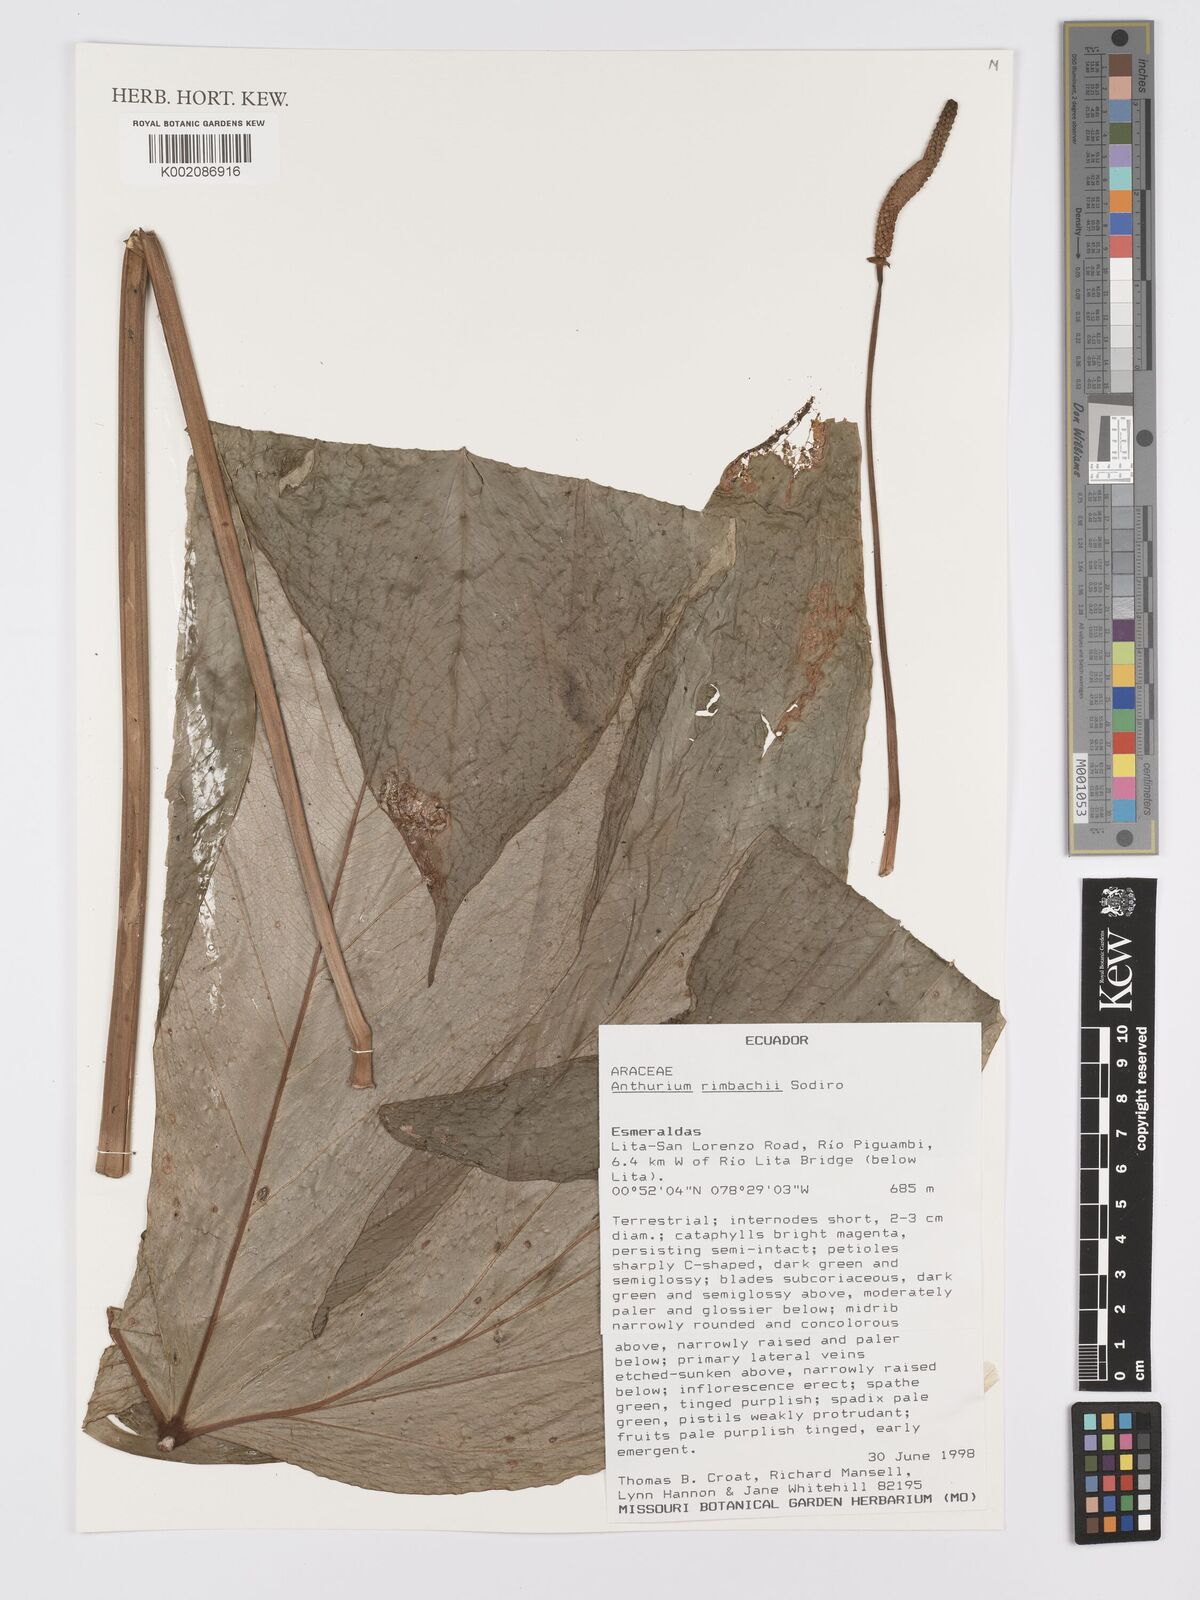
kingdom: Plantae
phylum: Tracheophyta
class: Liliopsida
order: Alismatales
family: Araceae
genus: Anthurium
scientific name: Anthurium rimbachii
